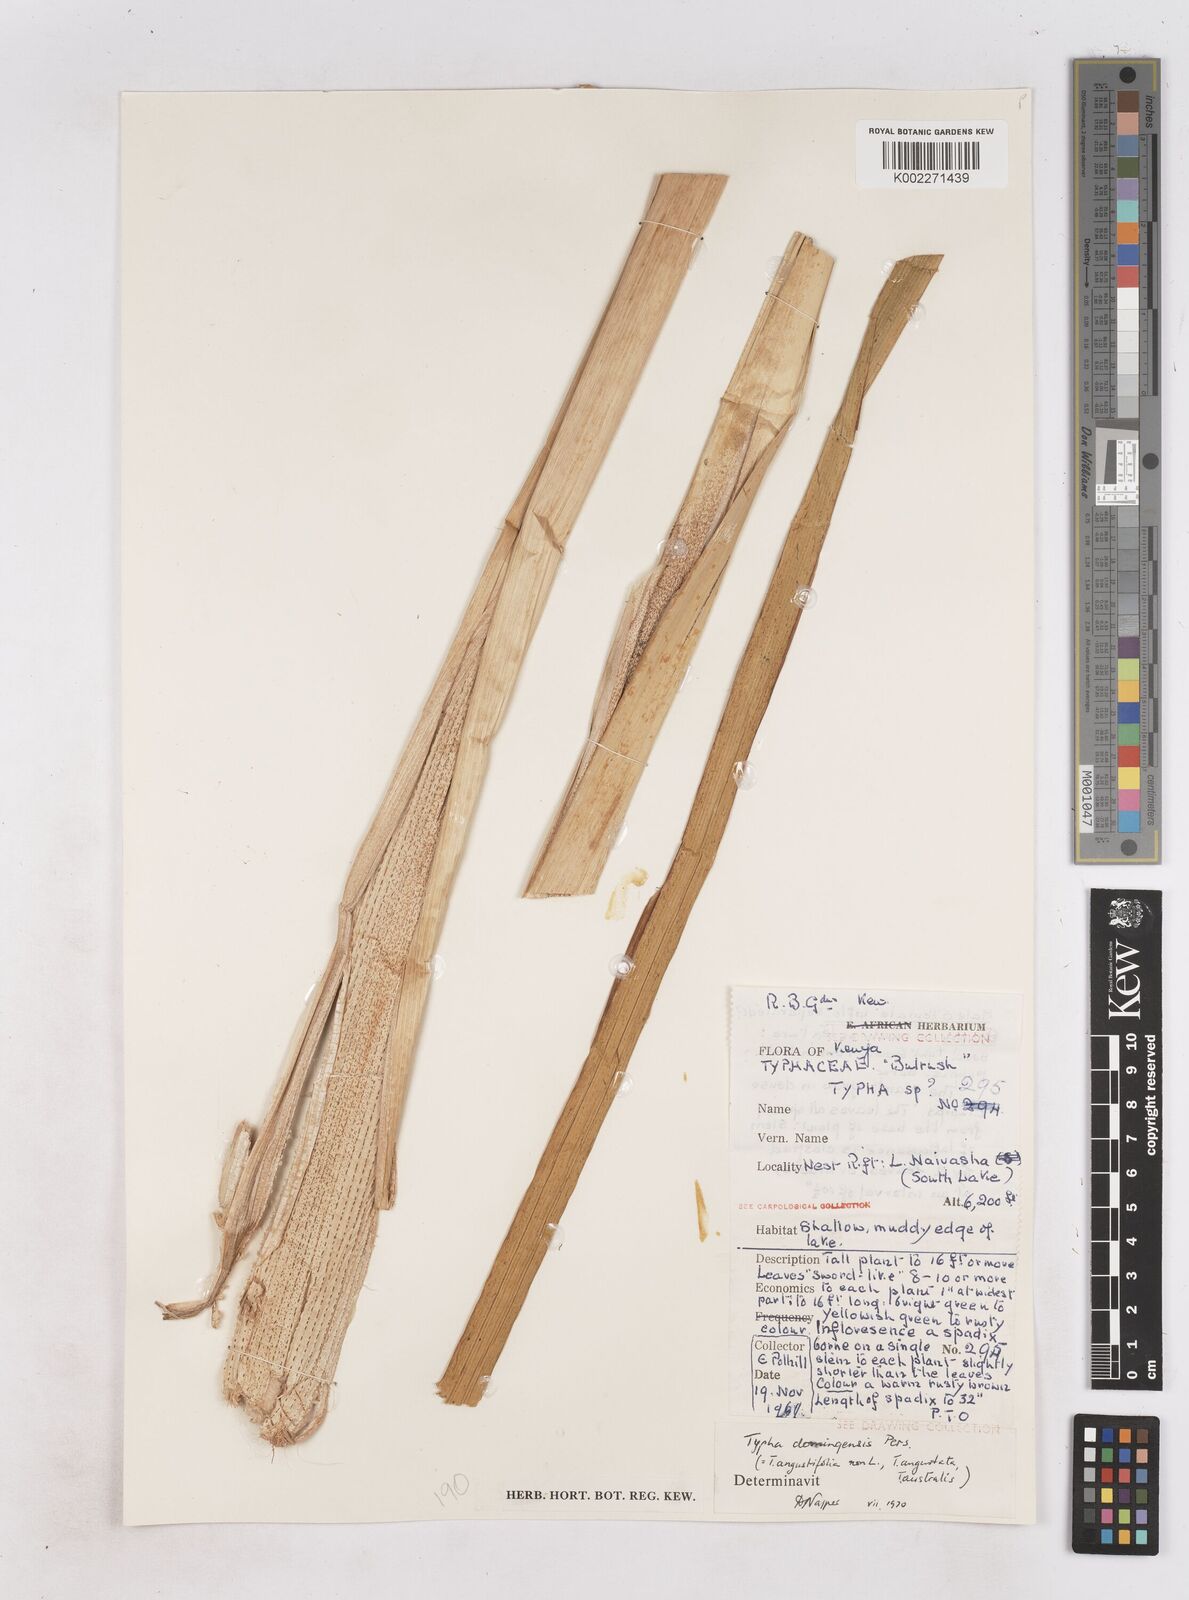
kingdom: Plantae
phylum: Tracheophyta
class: Liliopsida
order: Poales
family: Typhaceae
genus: Typha
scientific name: Typha domingensis
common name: Southern cattail
